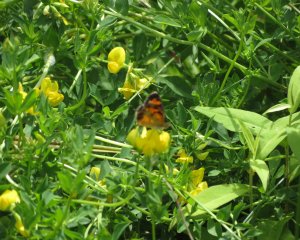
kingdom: Animalia
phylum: Arthropoda
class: Insecta
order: Lepidoptera
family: Nymphalidae
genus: Phyciodes
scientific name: Phyciodes tharos
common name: Northern Crescent
